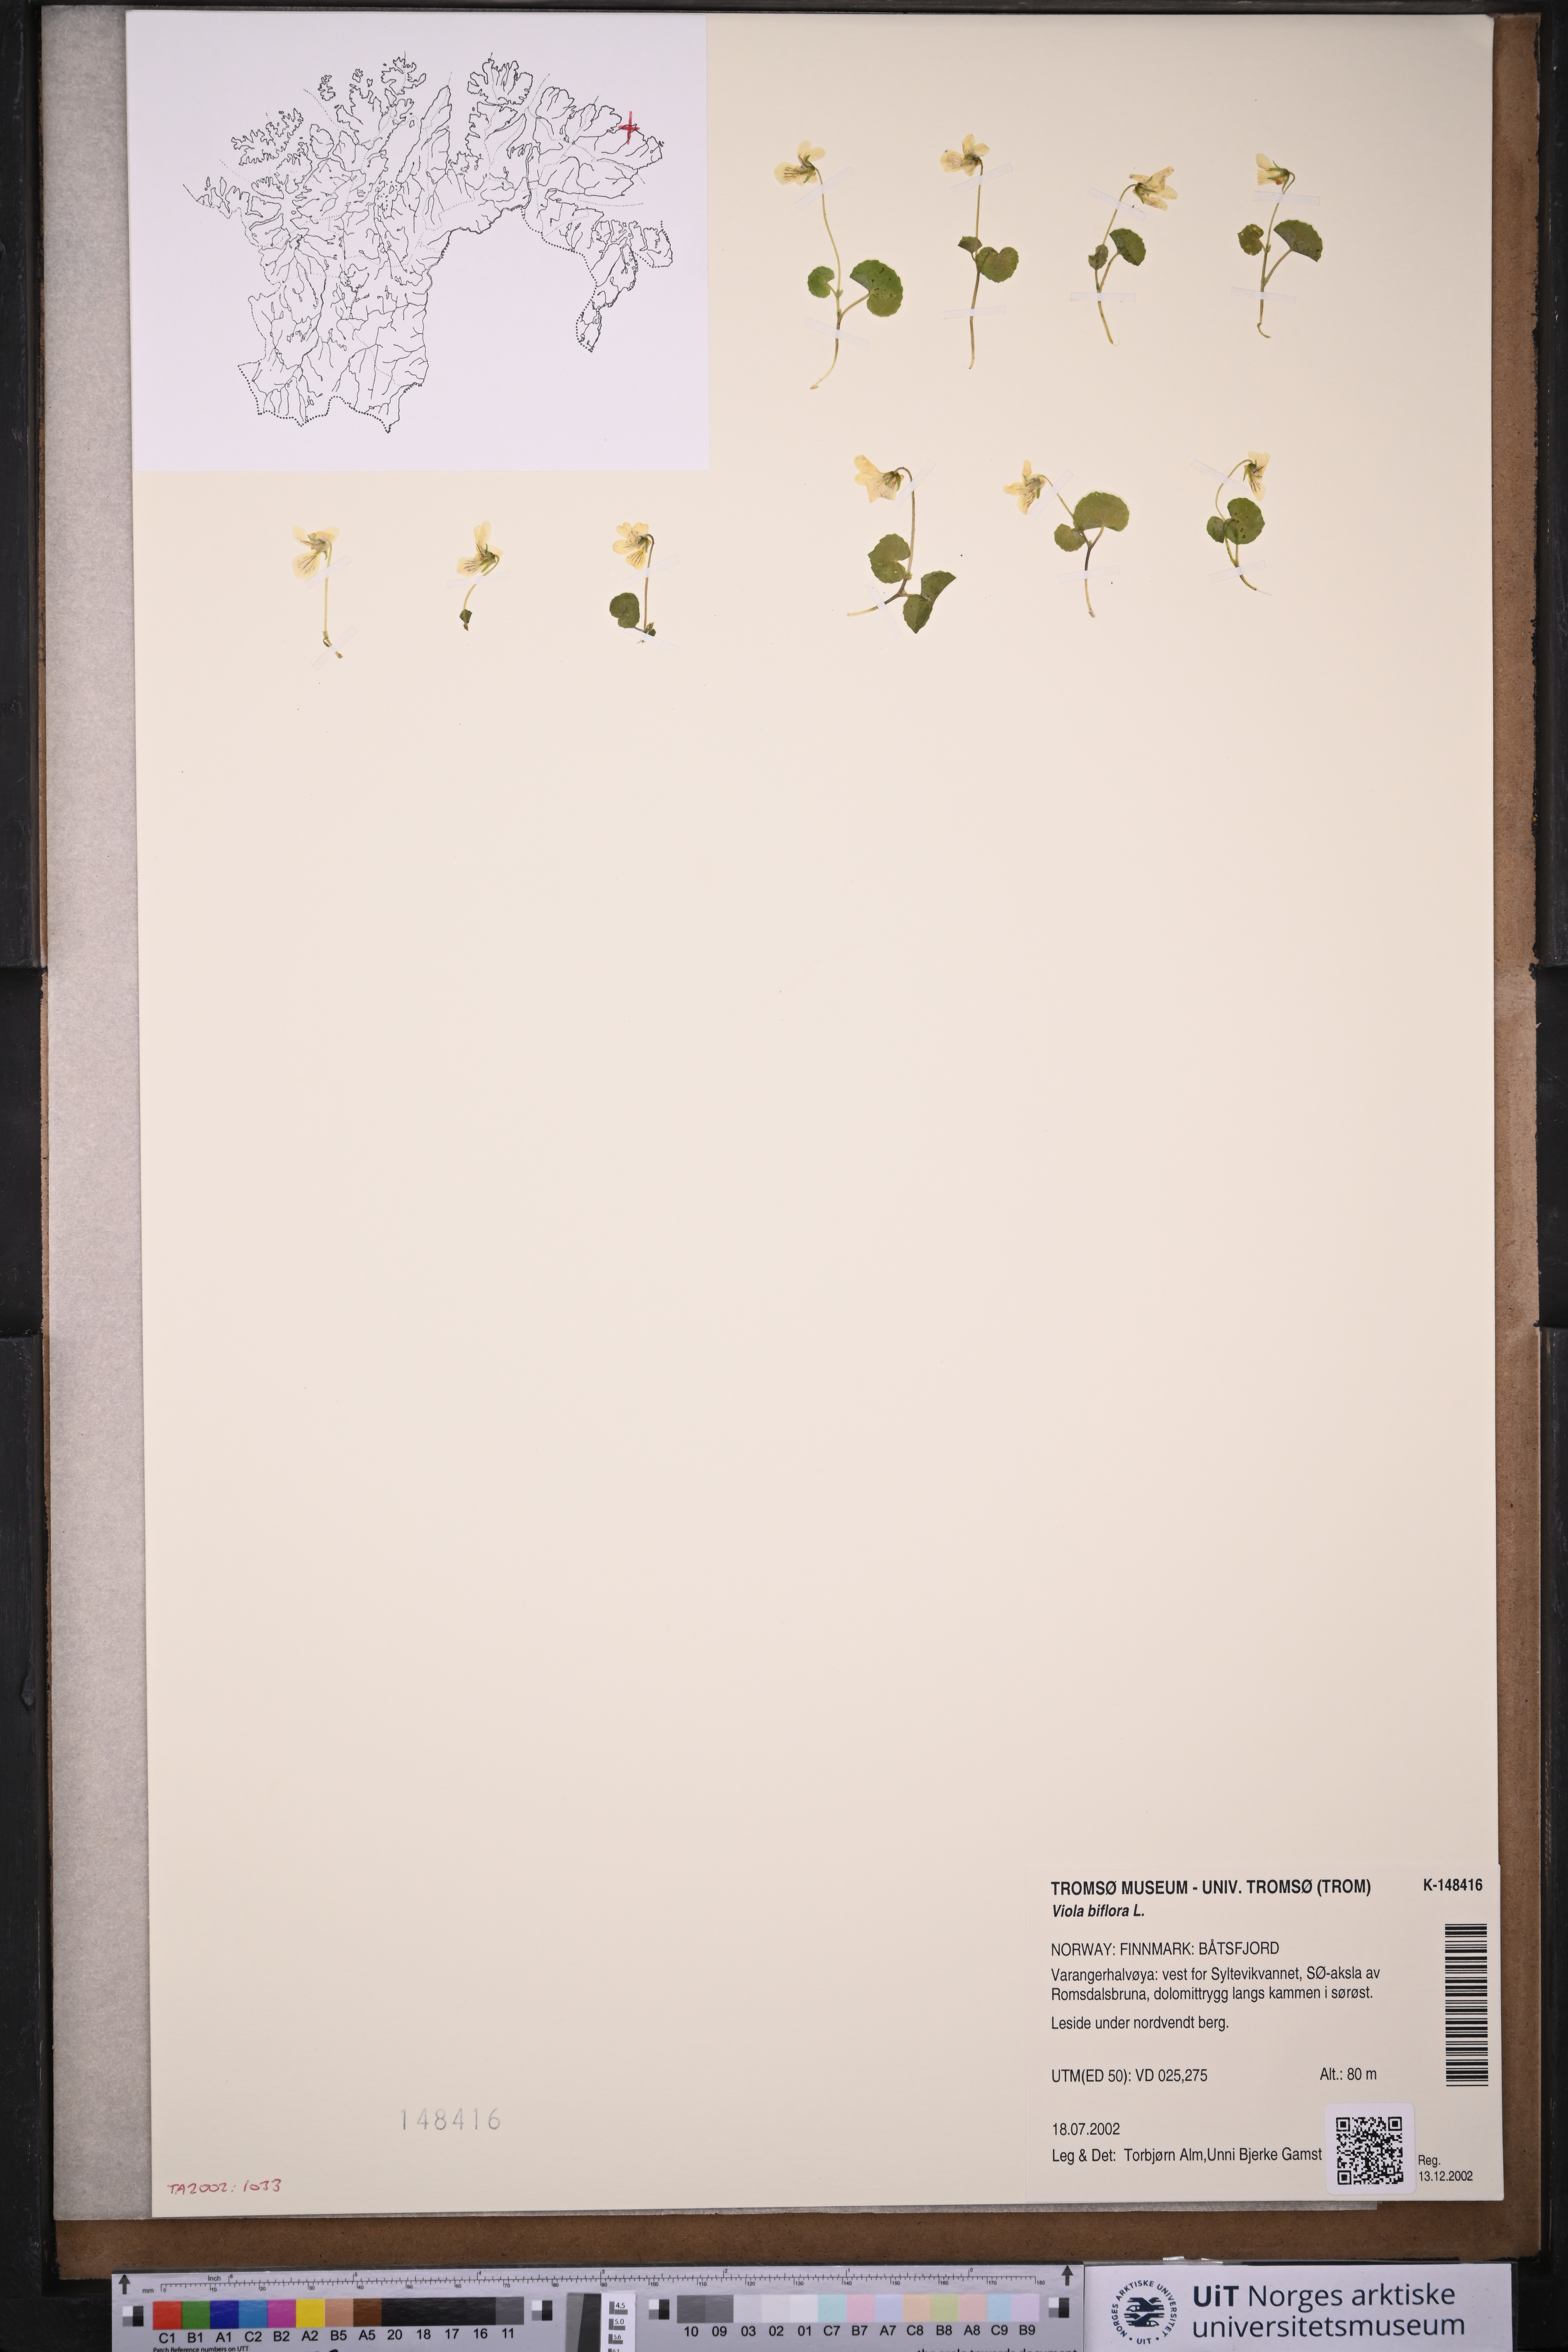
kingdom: Plantae
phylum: Tracheophyta
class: Magnoliopsida
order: Malpighiales
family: Violaceae
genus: Viola
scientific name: Viola biflora
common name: Alpine yellow violet
